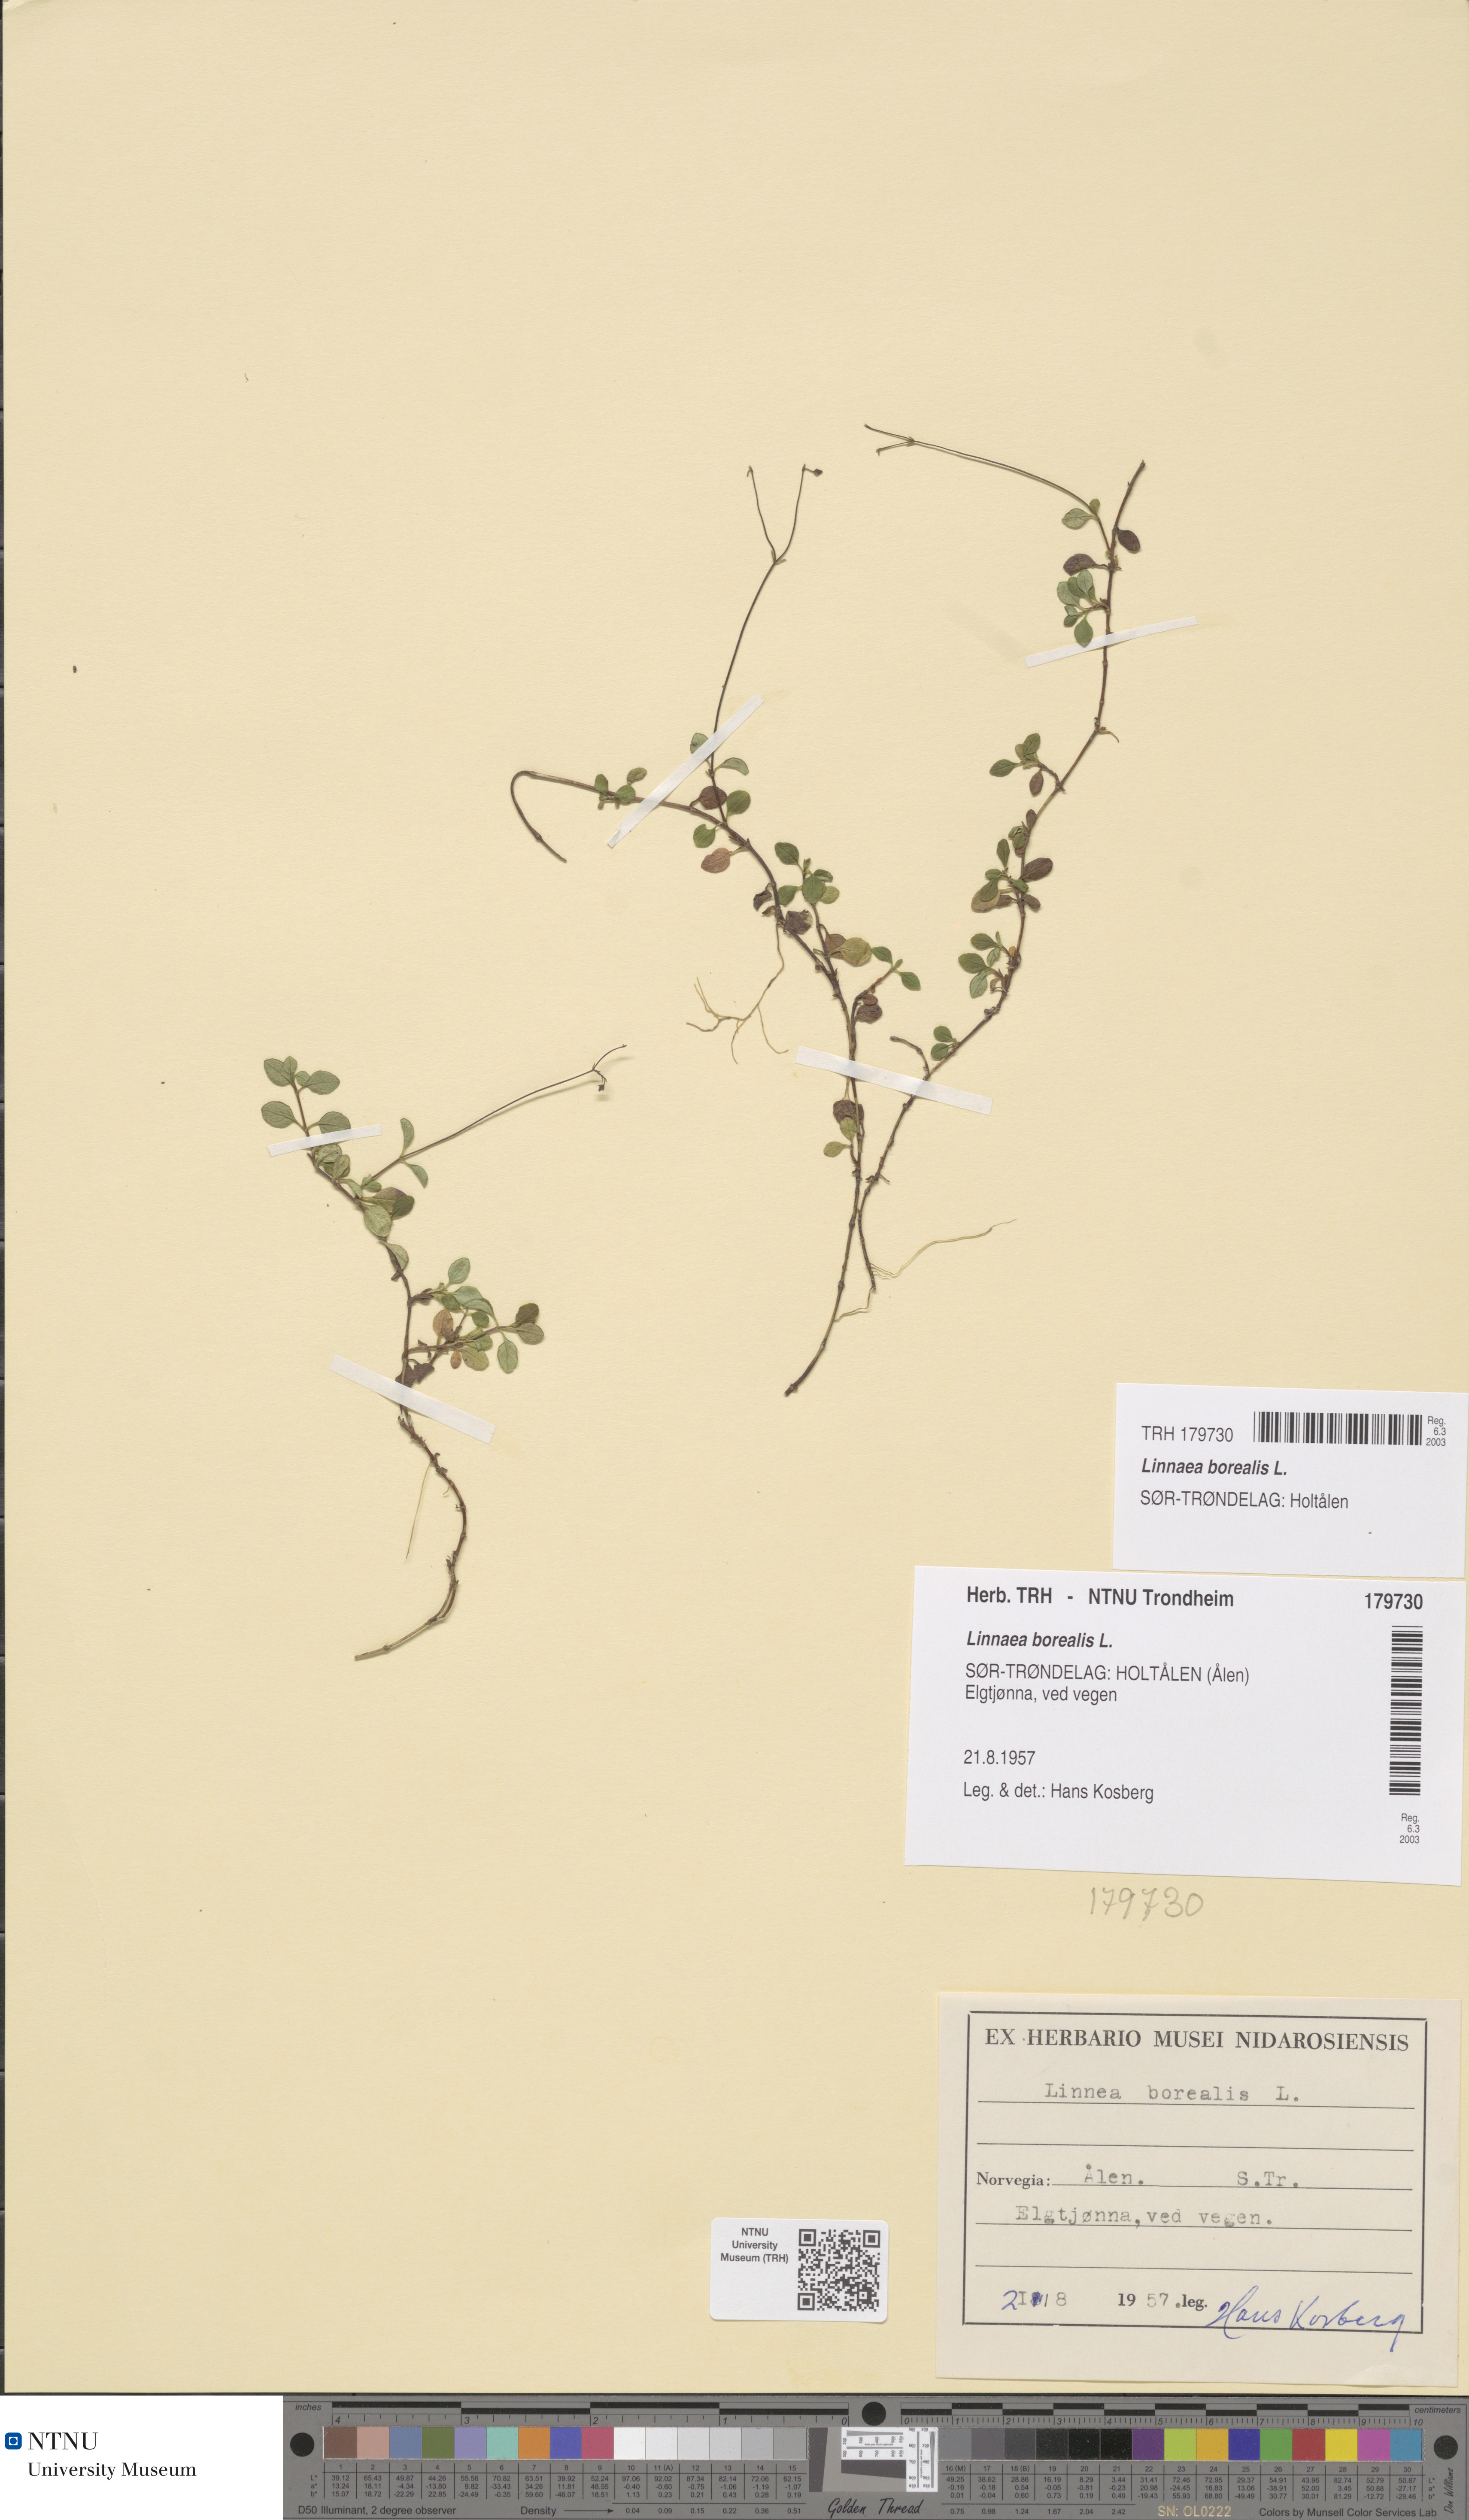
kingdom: Plantae
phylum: Tracheophyta
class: Magnoliopsida
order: Dipsacales
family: Caprifoliaceae
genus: Linnaea
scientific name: Linnaea borealis
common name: Twinflower
